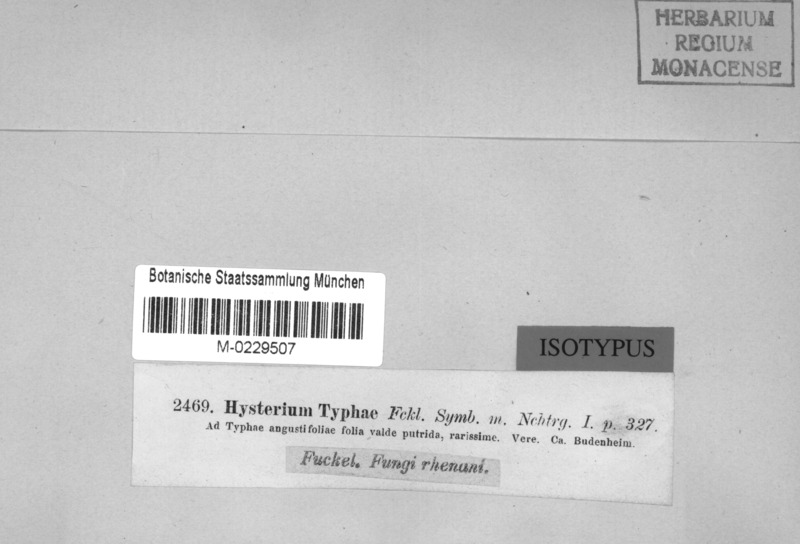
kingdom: Fungi
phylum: Ascomycota
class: Dothideomycetes
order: Hysteriales
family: Hysteriaceae
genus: Gloniella
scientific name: Gloniella typhae
